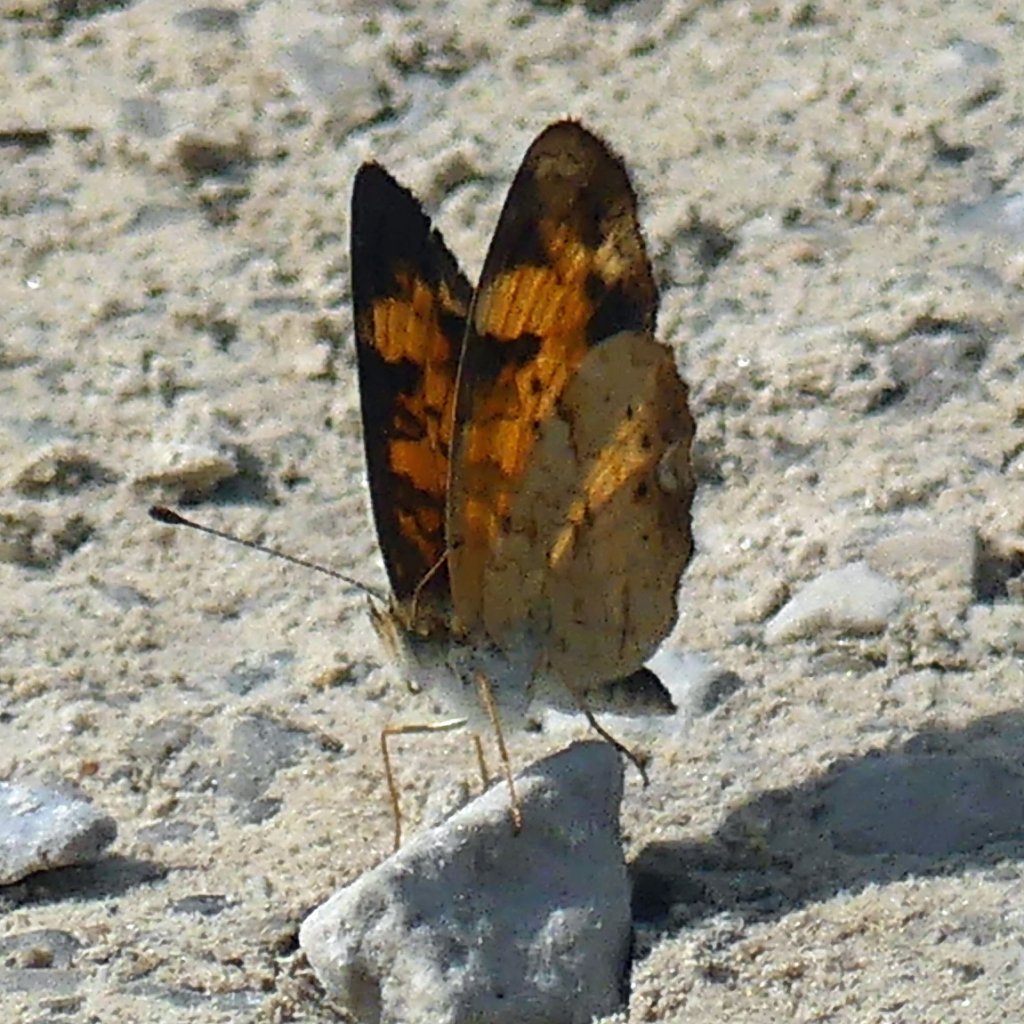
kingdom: Animalia
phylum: Arthropoda
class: Insecta
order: Lepidoptera
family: Nymphalidae
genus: Phyciodes
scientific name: Phyciodes tharos
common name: Pearl Crescent
